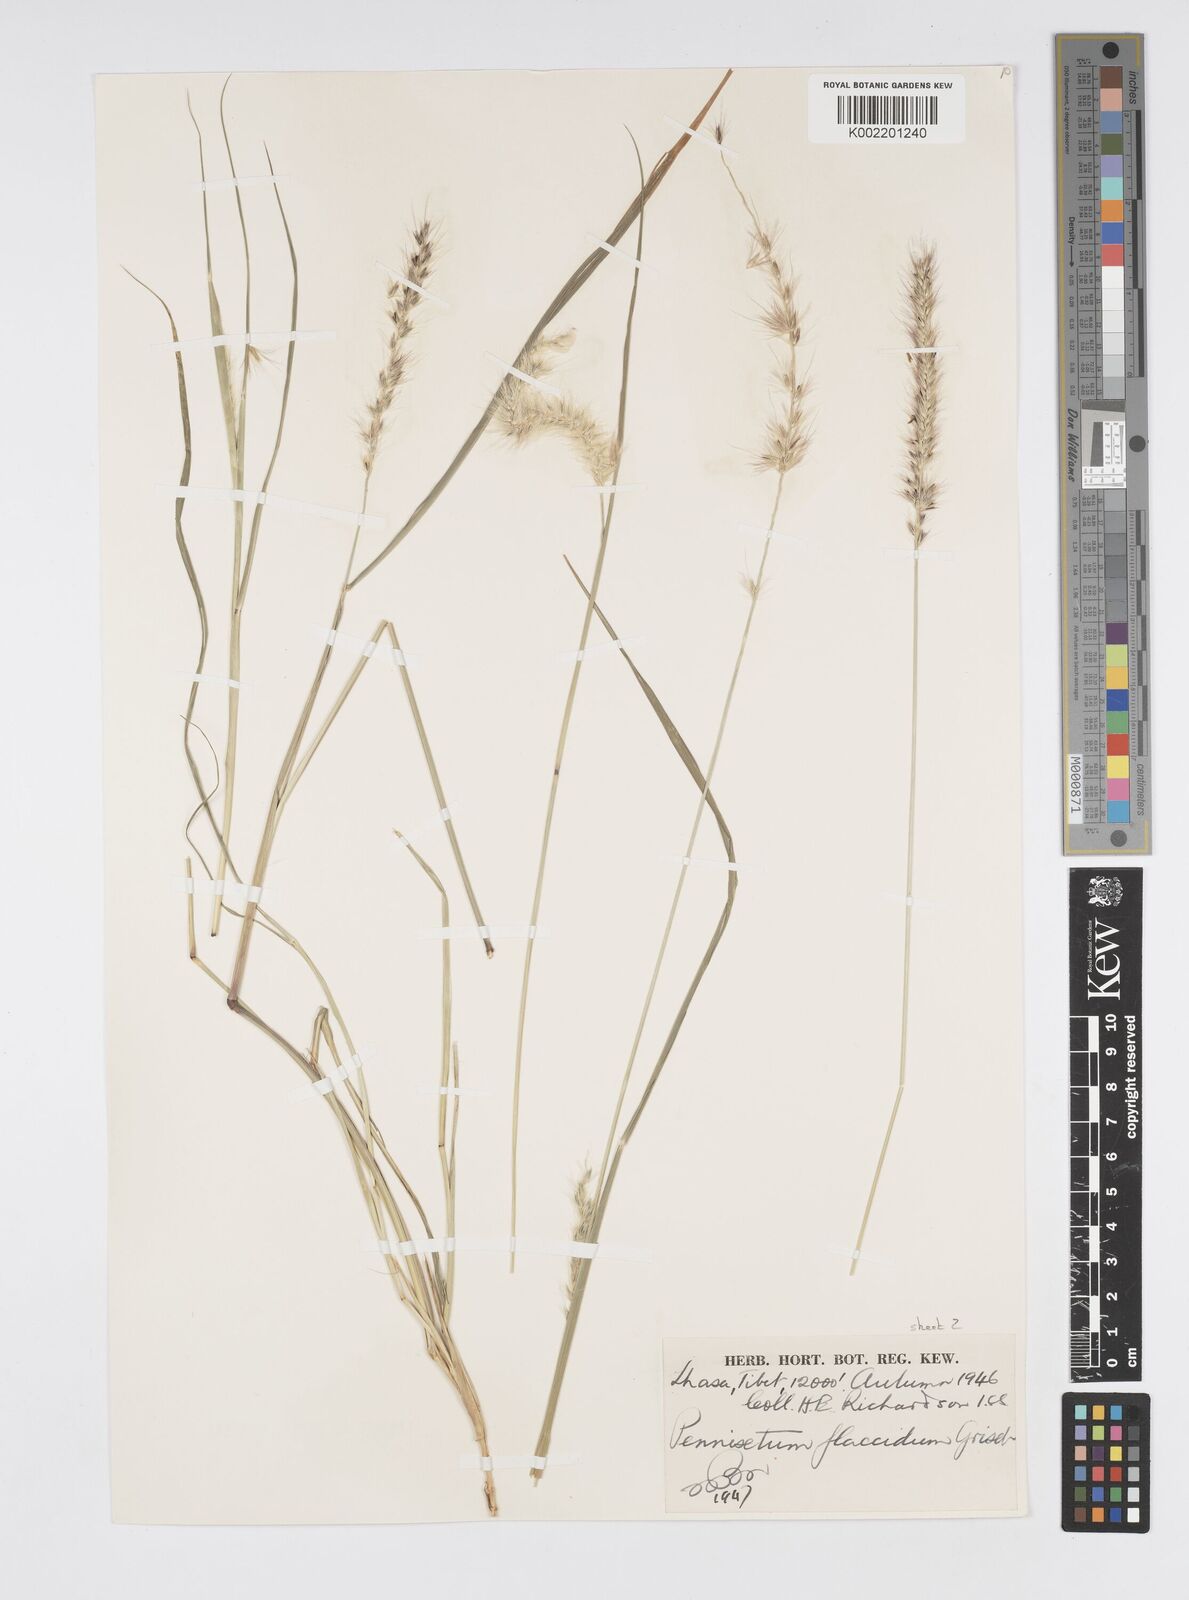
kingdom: Plantae
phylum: Tracheophyta
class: Liliopsida
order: Poales
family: Poaceae
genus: Cenchrus
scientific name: Cenchrus flaccidus
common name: Flaccid grass
